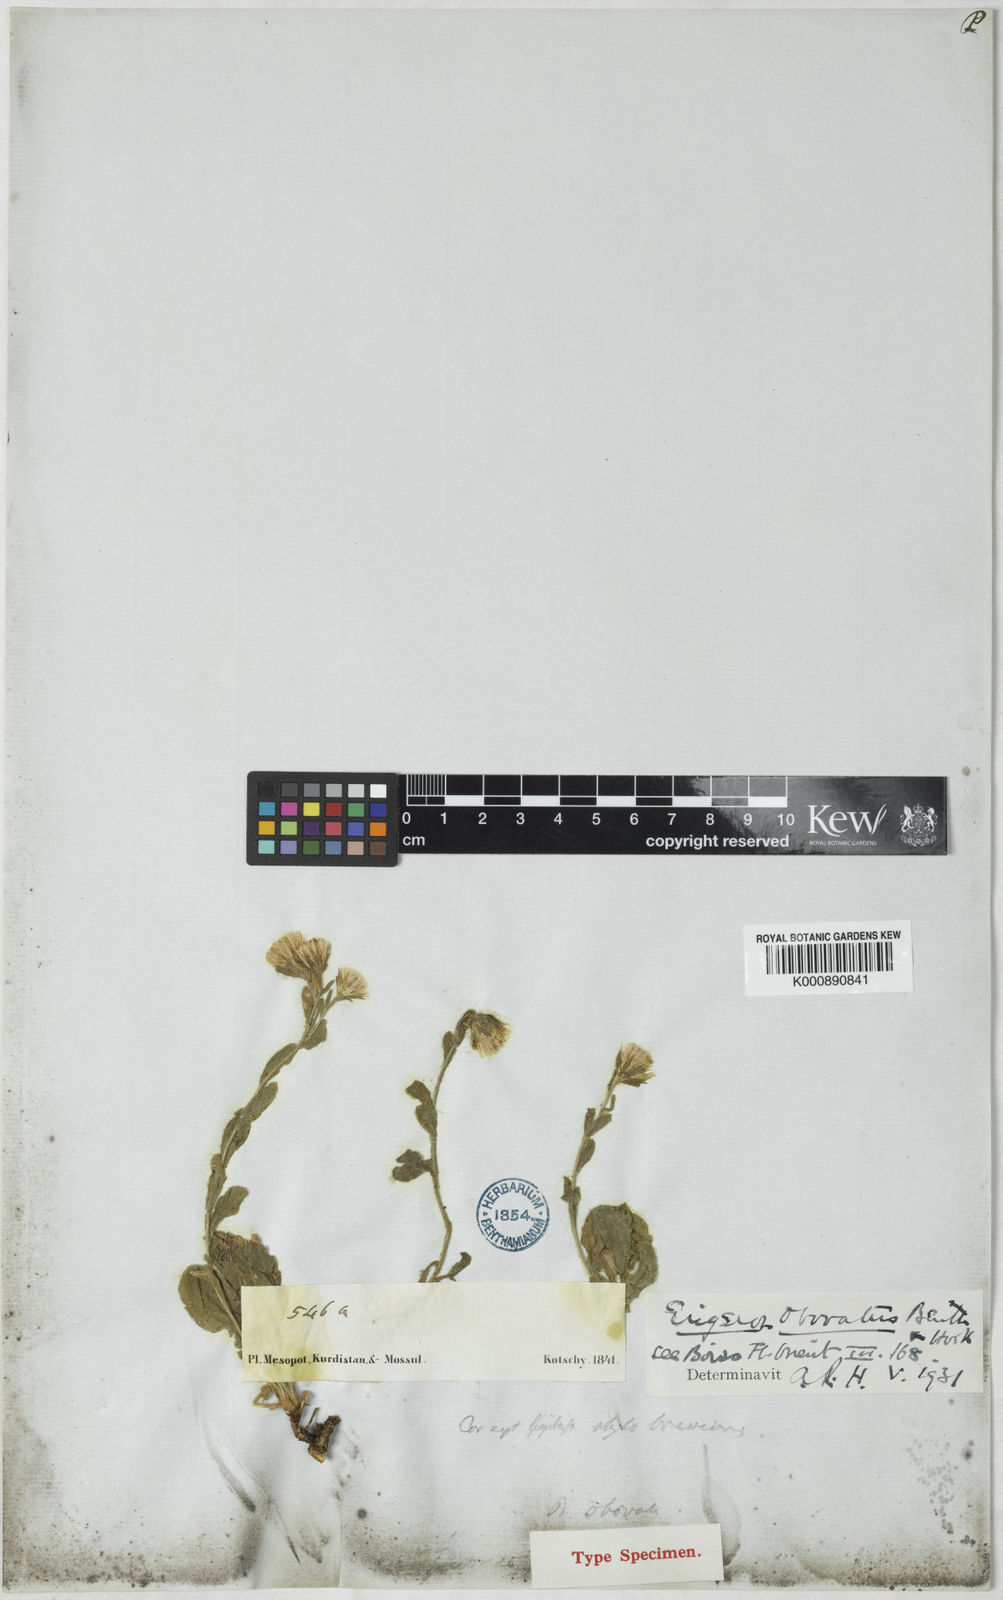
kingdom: Plantae
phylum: Tracheophyta
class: Magnoliopsida
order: Asterales
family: Asteraceae
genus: Neobrachyactis
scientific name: Neobrachyactis obovata
